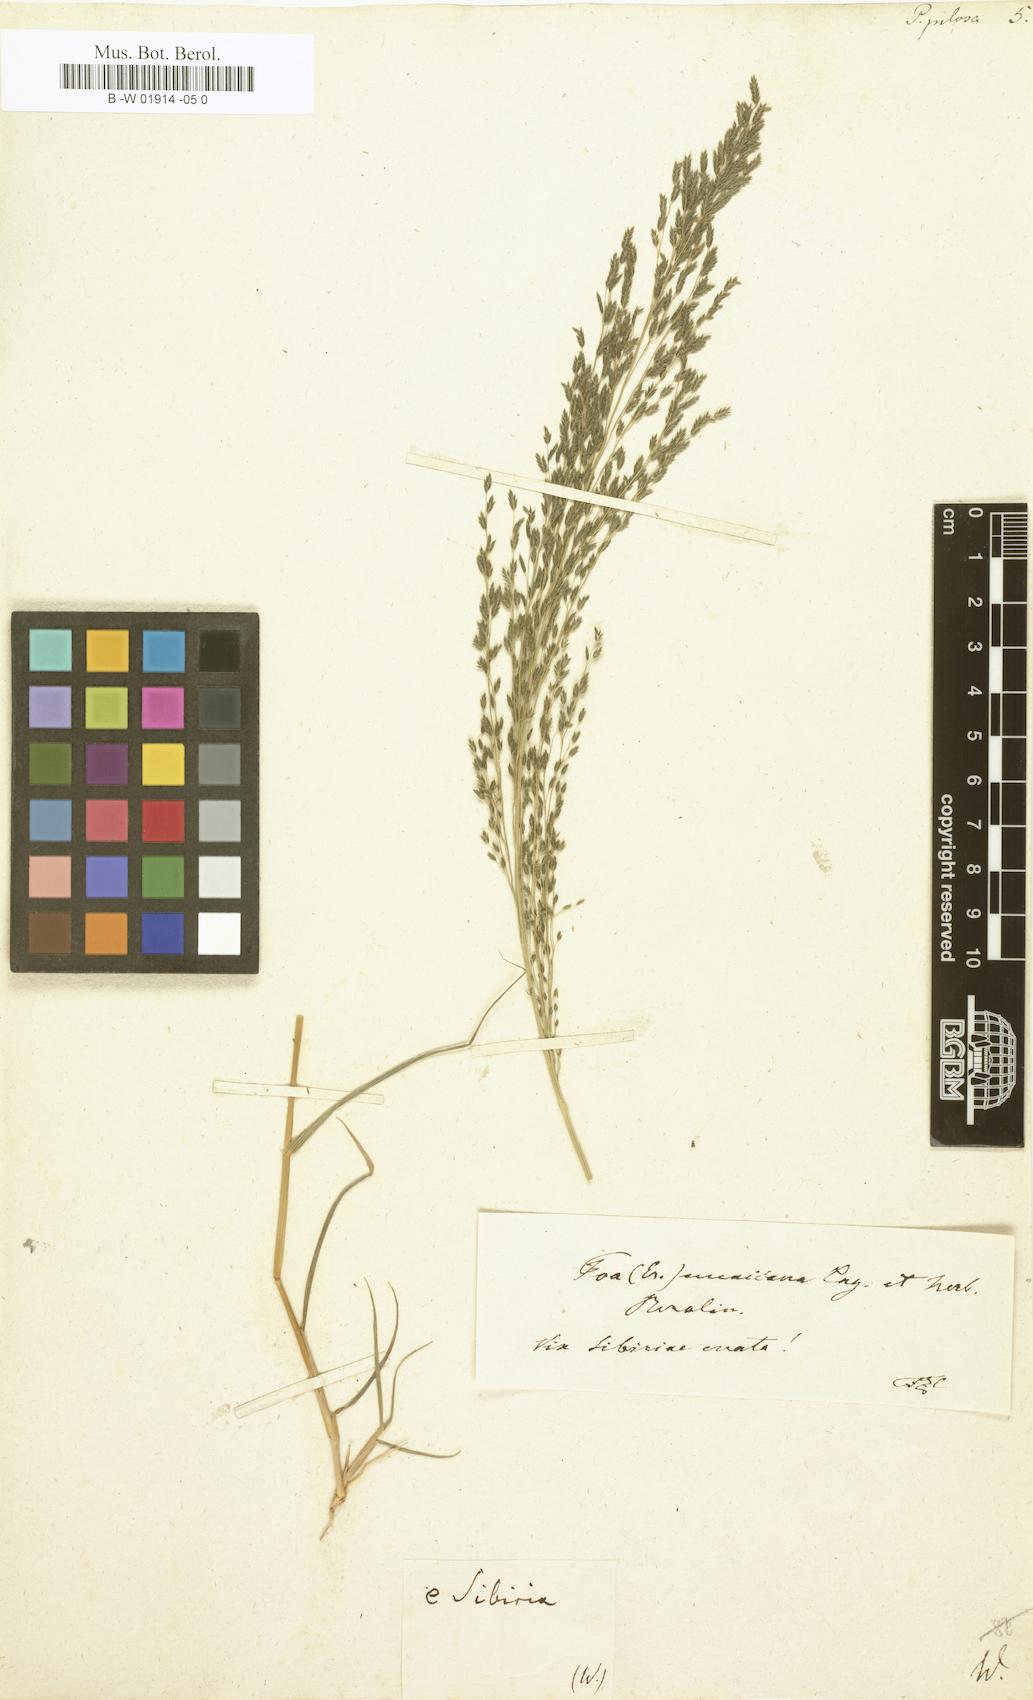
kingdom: Plantae
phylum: Tracheophyta
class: Liliopsida
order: Poales
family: Poaceae
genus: Eragrostis
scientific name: Eragrostis pilosa
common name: Indian lovegrass
